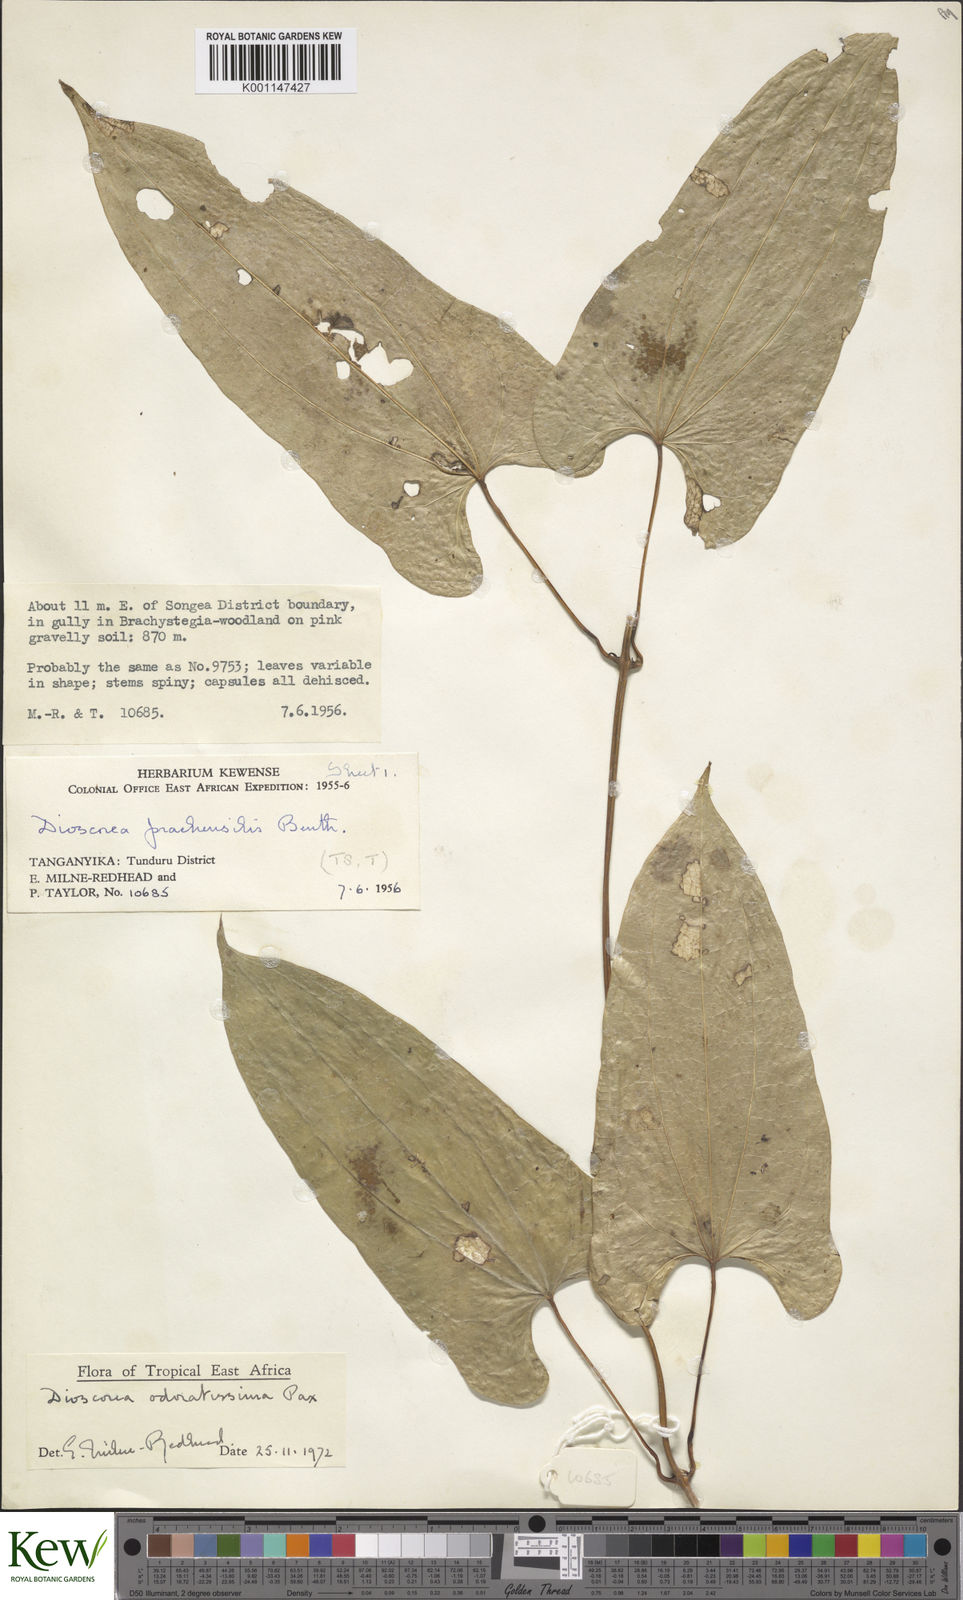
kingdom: Plantae
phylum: Tracheophyta
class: Liliopsida
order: Dioscoreales
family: Dioscoreaceae
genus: Dioscorea
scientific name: Dioscorea praehensilis
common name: Bush yam
